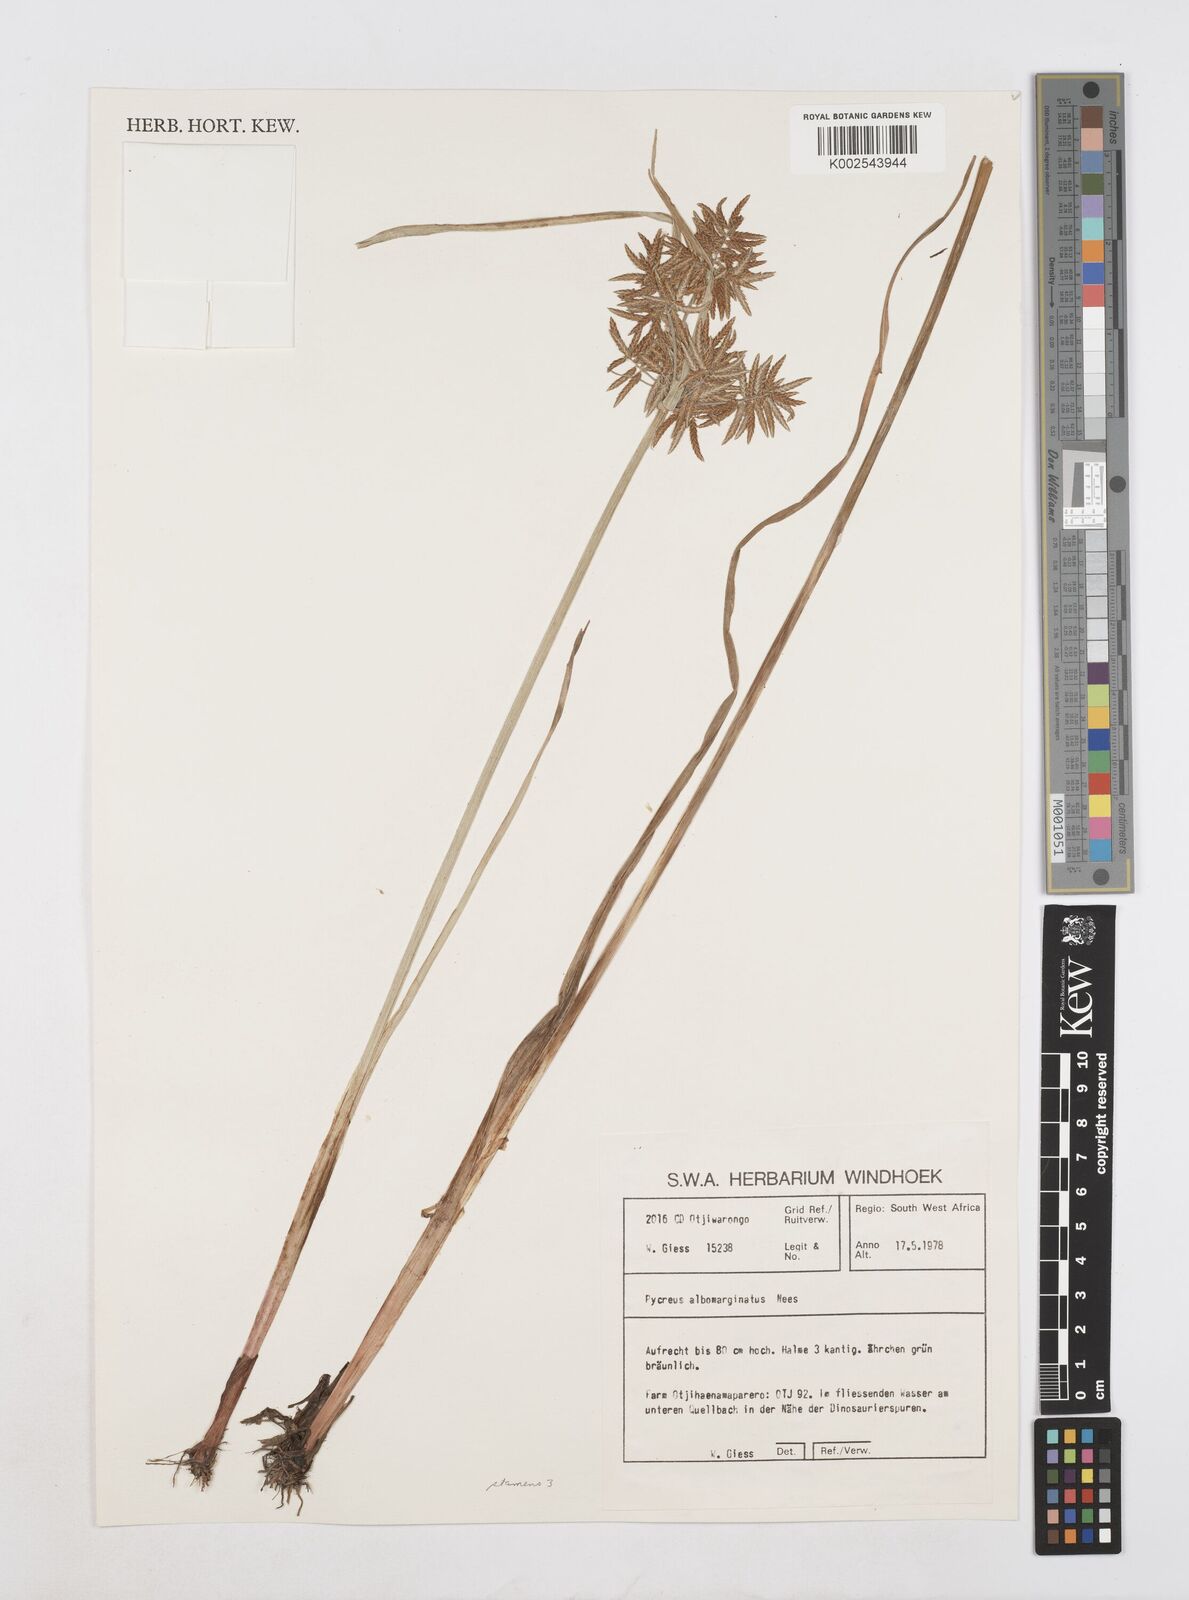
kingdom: Plantae
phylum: Tracheophyta
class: Liliopsida
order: Poales
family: Cyperaceae
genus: Cyperus
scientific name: Cyperus macrostachyos
